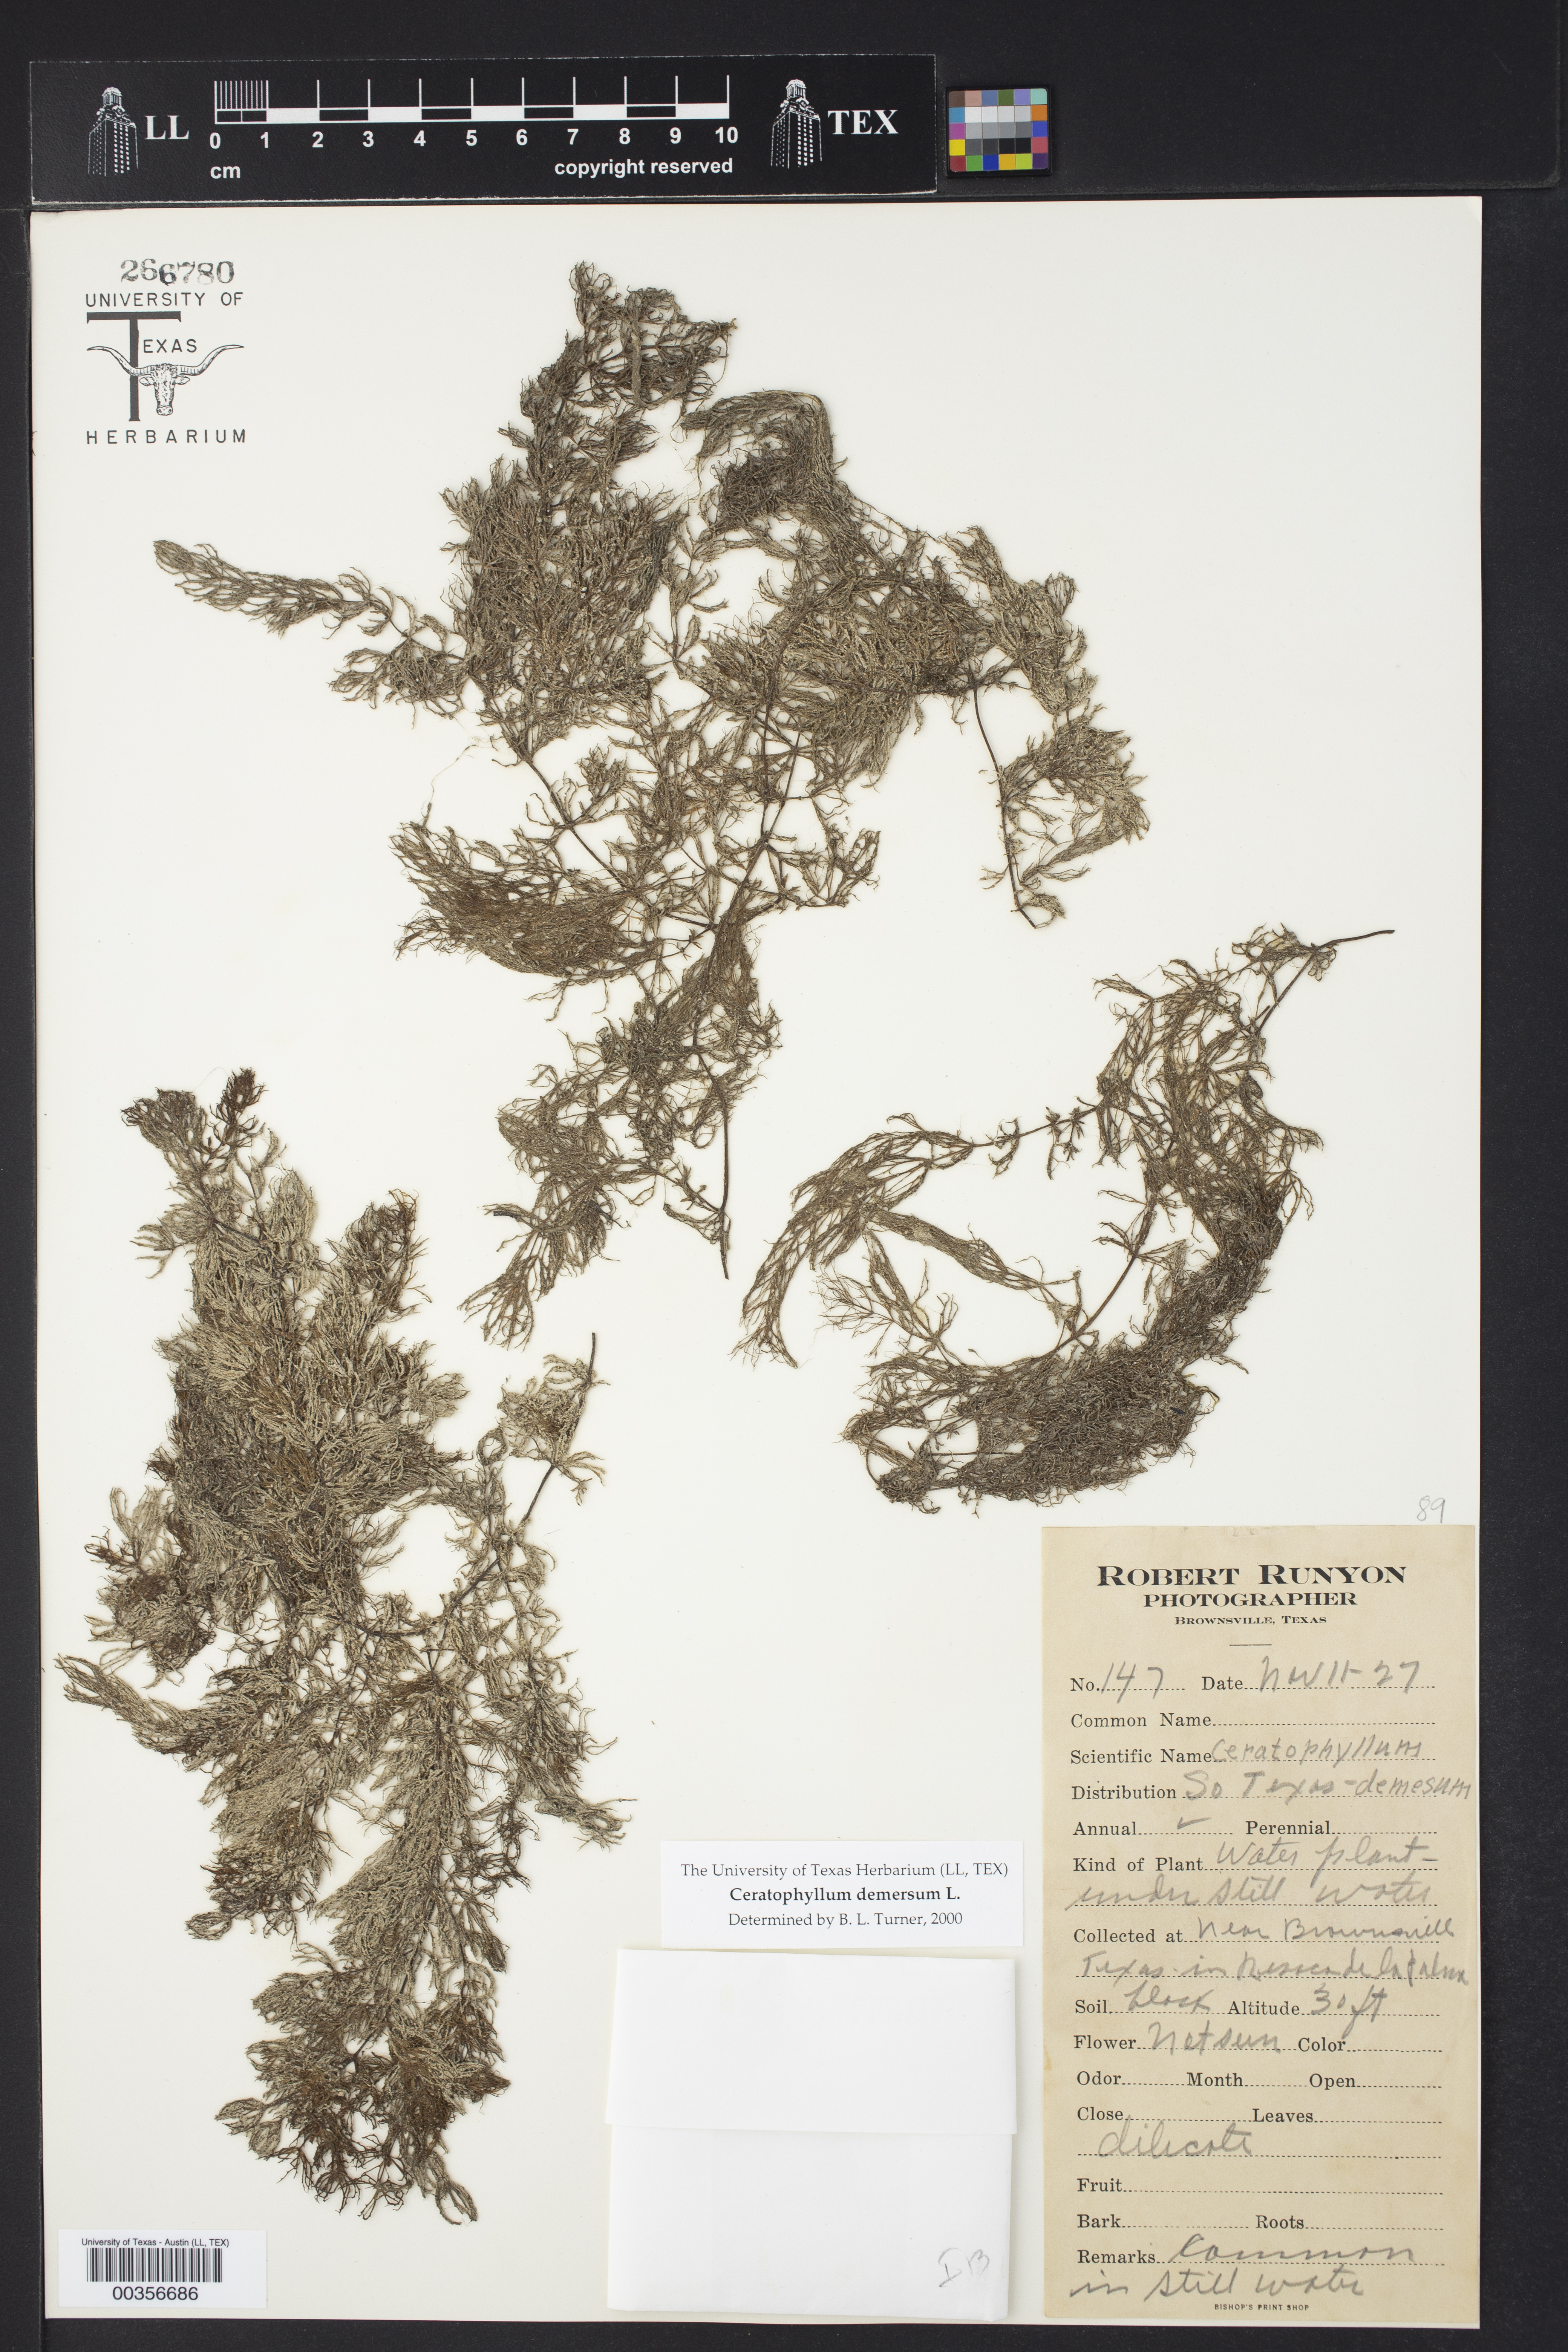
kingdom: Plantae
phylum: Tracheophyta
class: Magnoliopsida
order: Ceratophyllales
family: Ceratophyllaceae
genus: Ceratophyllum
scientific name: Ceratophyllum demersum
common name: Rigid hornwort
